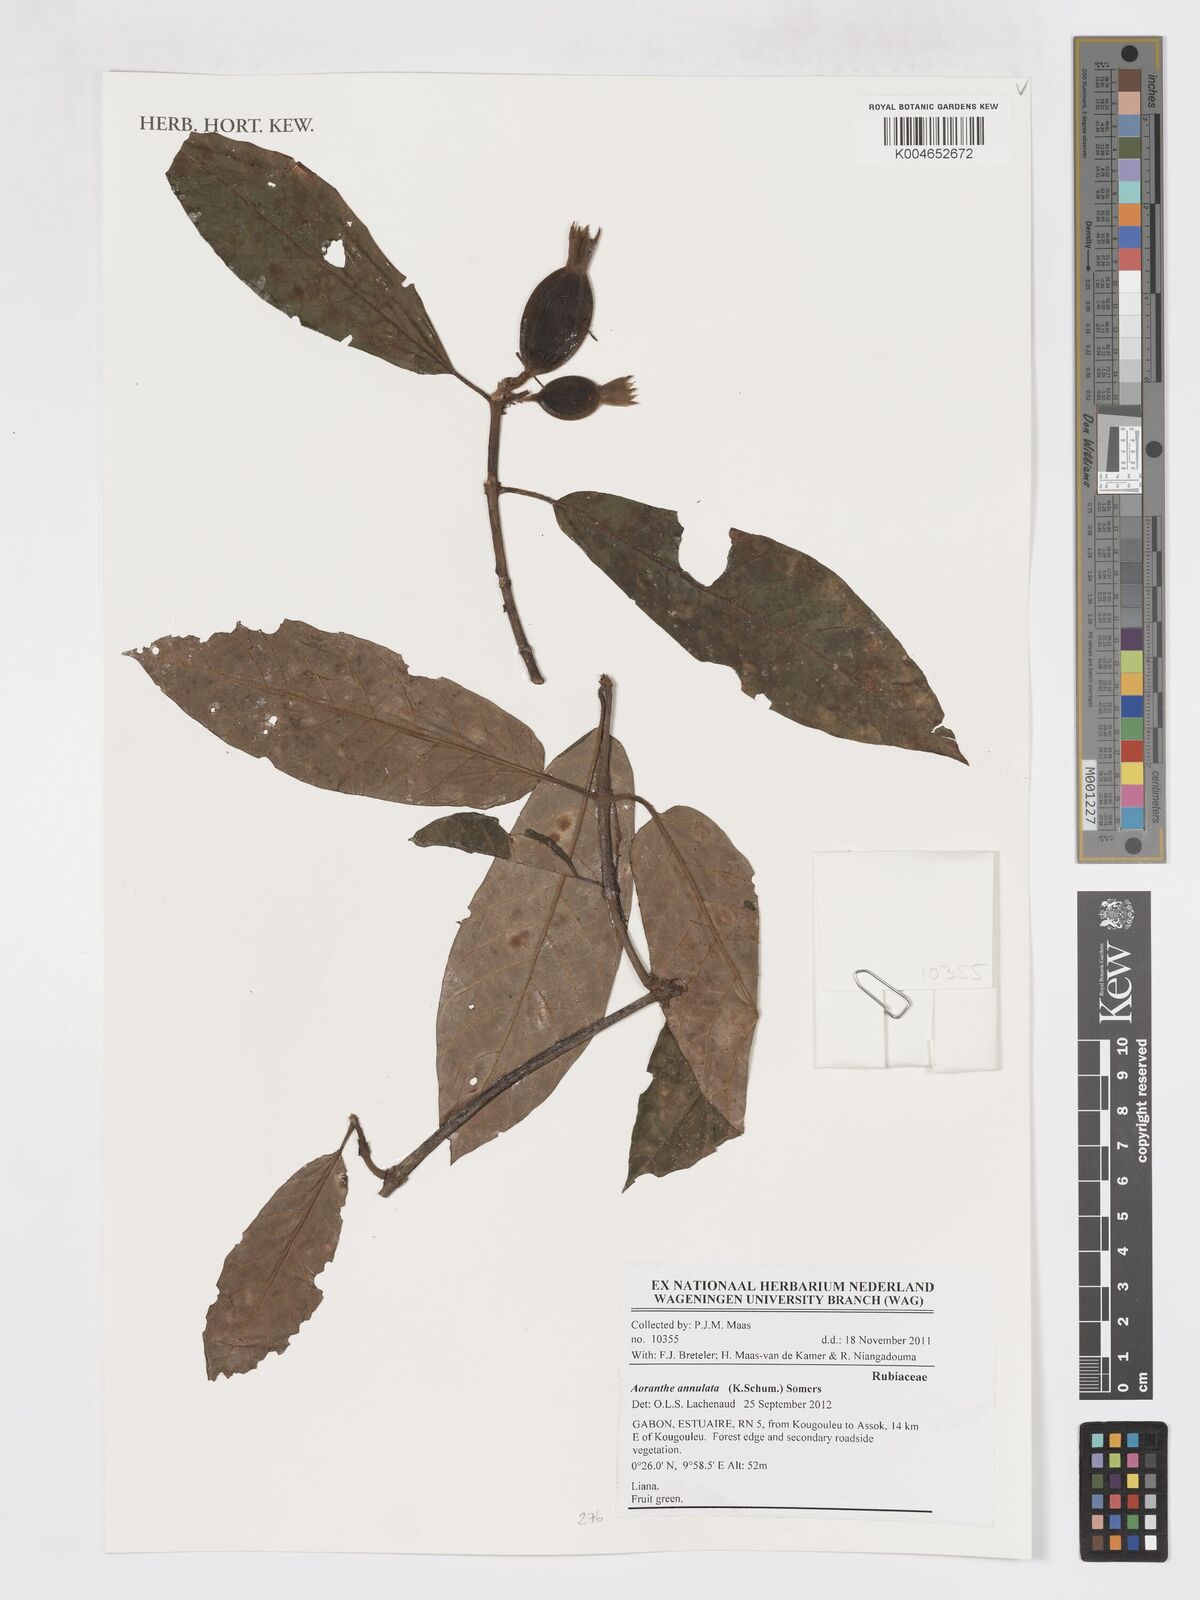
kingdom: Plantae
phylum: Tracheophyta
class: Magnoliopsida
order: Gentianales
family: Rubiaceae
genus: Aoranthe
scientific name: Aoranthe annulata
